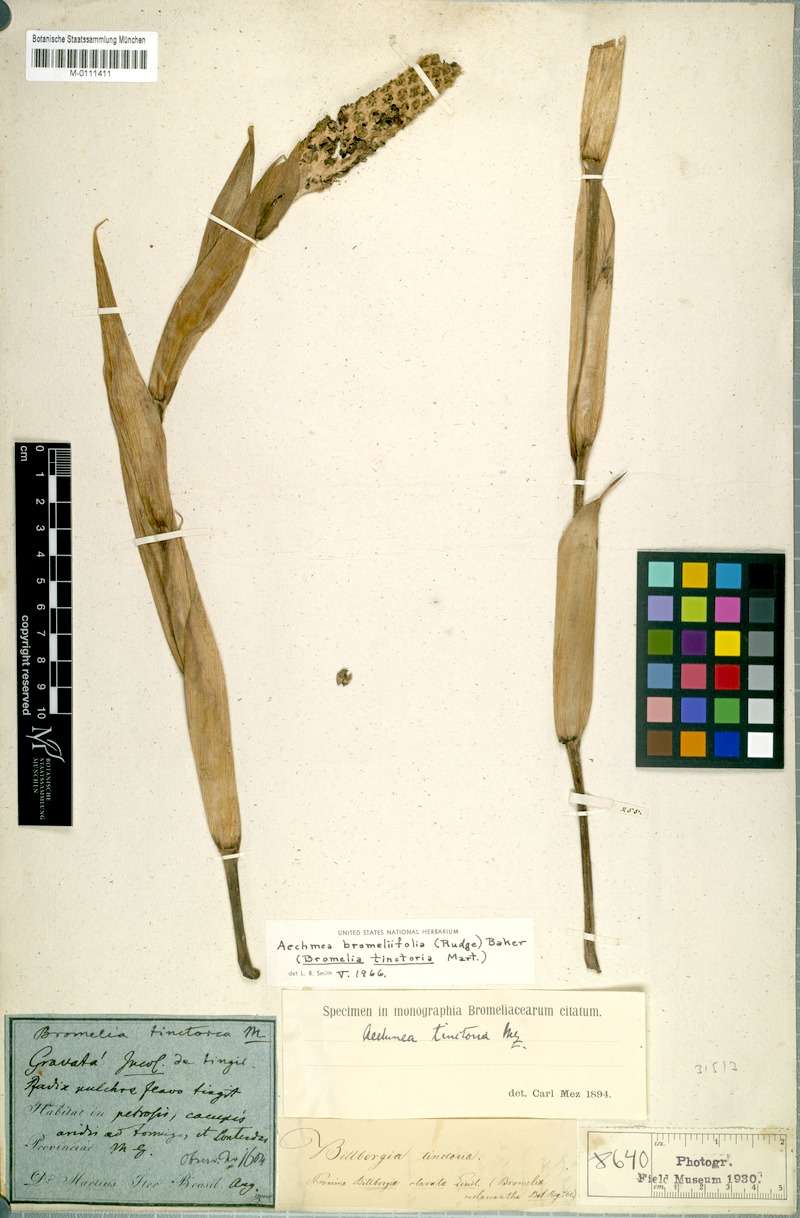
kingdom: Plantae
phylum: Tracheophyta
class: Liliopsida
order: Poales
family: Bromeliaceae
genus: Aechmea
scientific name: Aechmea bromeliifolia
